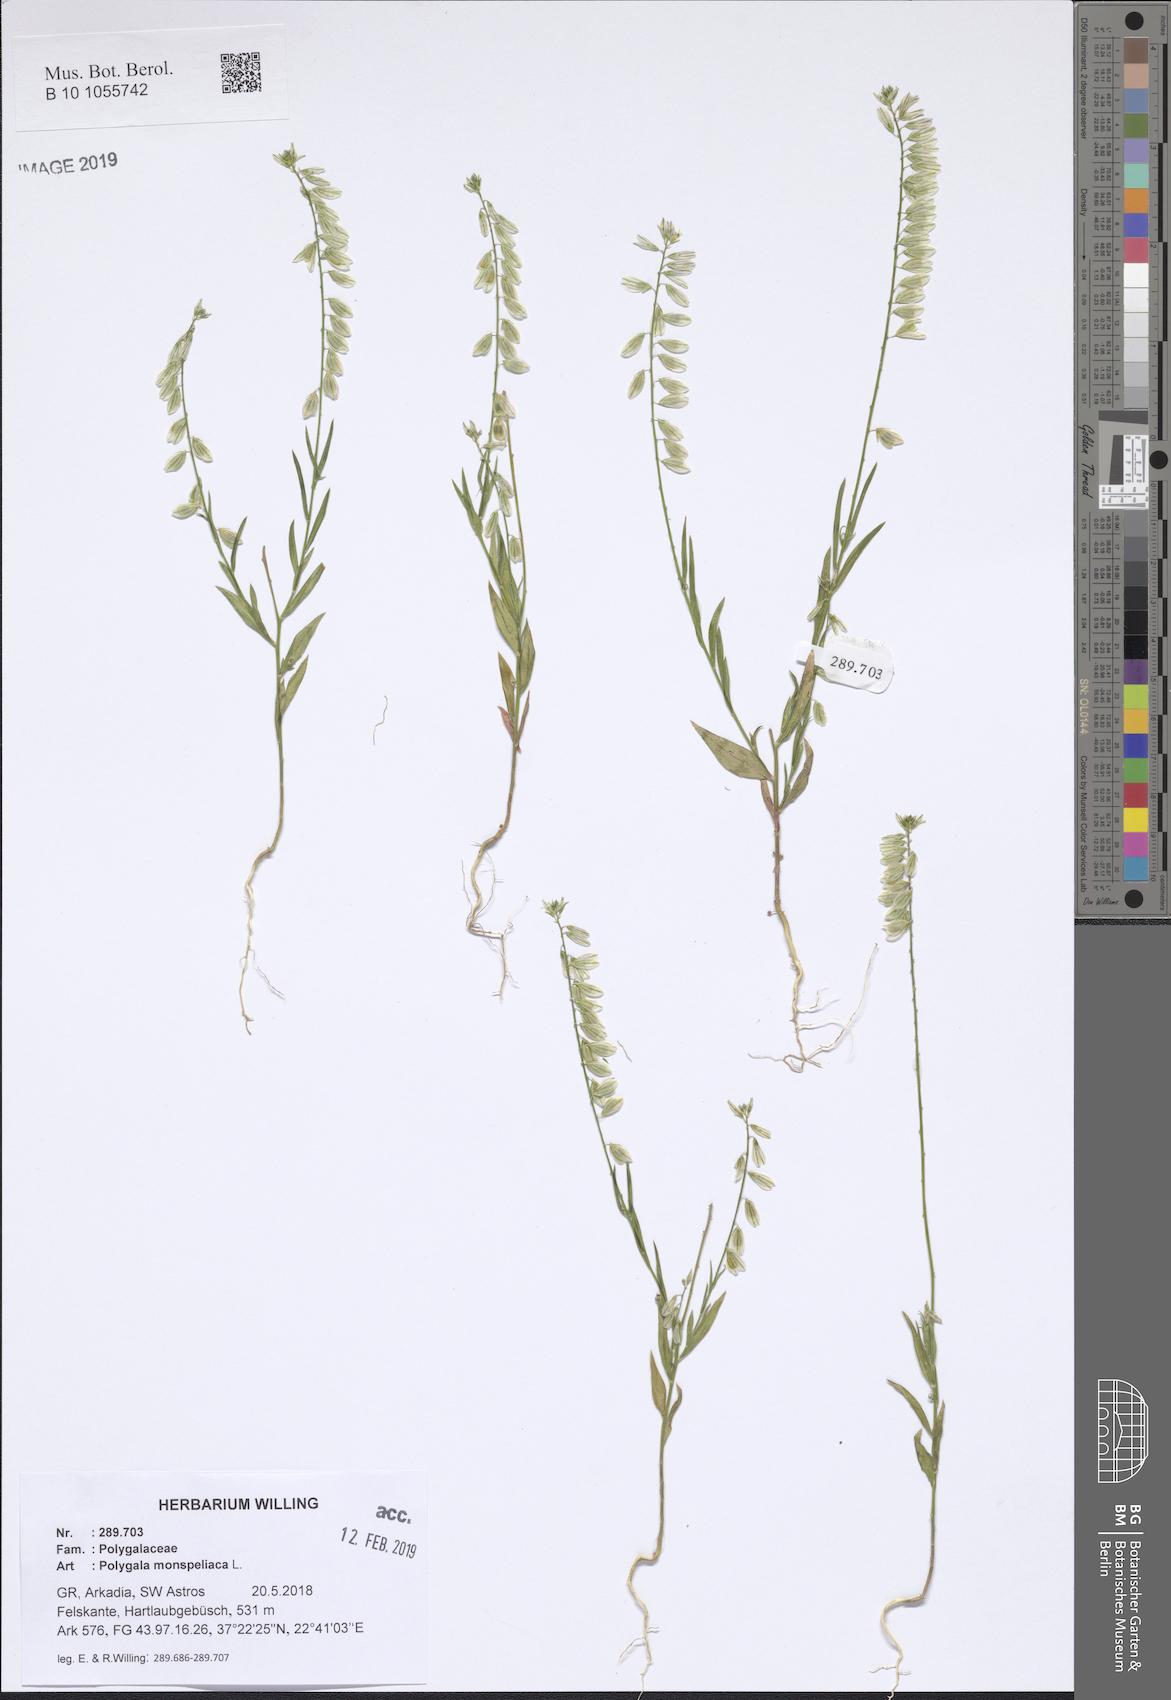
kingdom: Plantae
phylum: Tracheophyta
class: Magnoliopsida
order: Fabales
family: Polygalaceae
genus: Polygala
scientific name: Polygala monspeliaca
